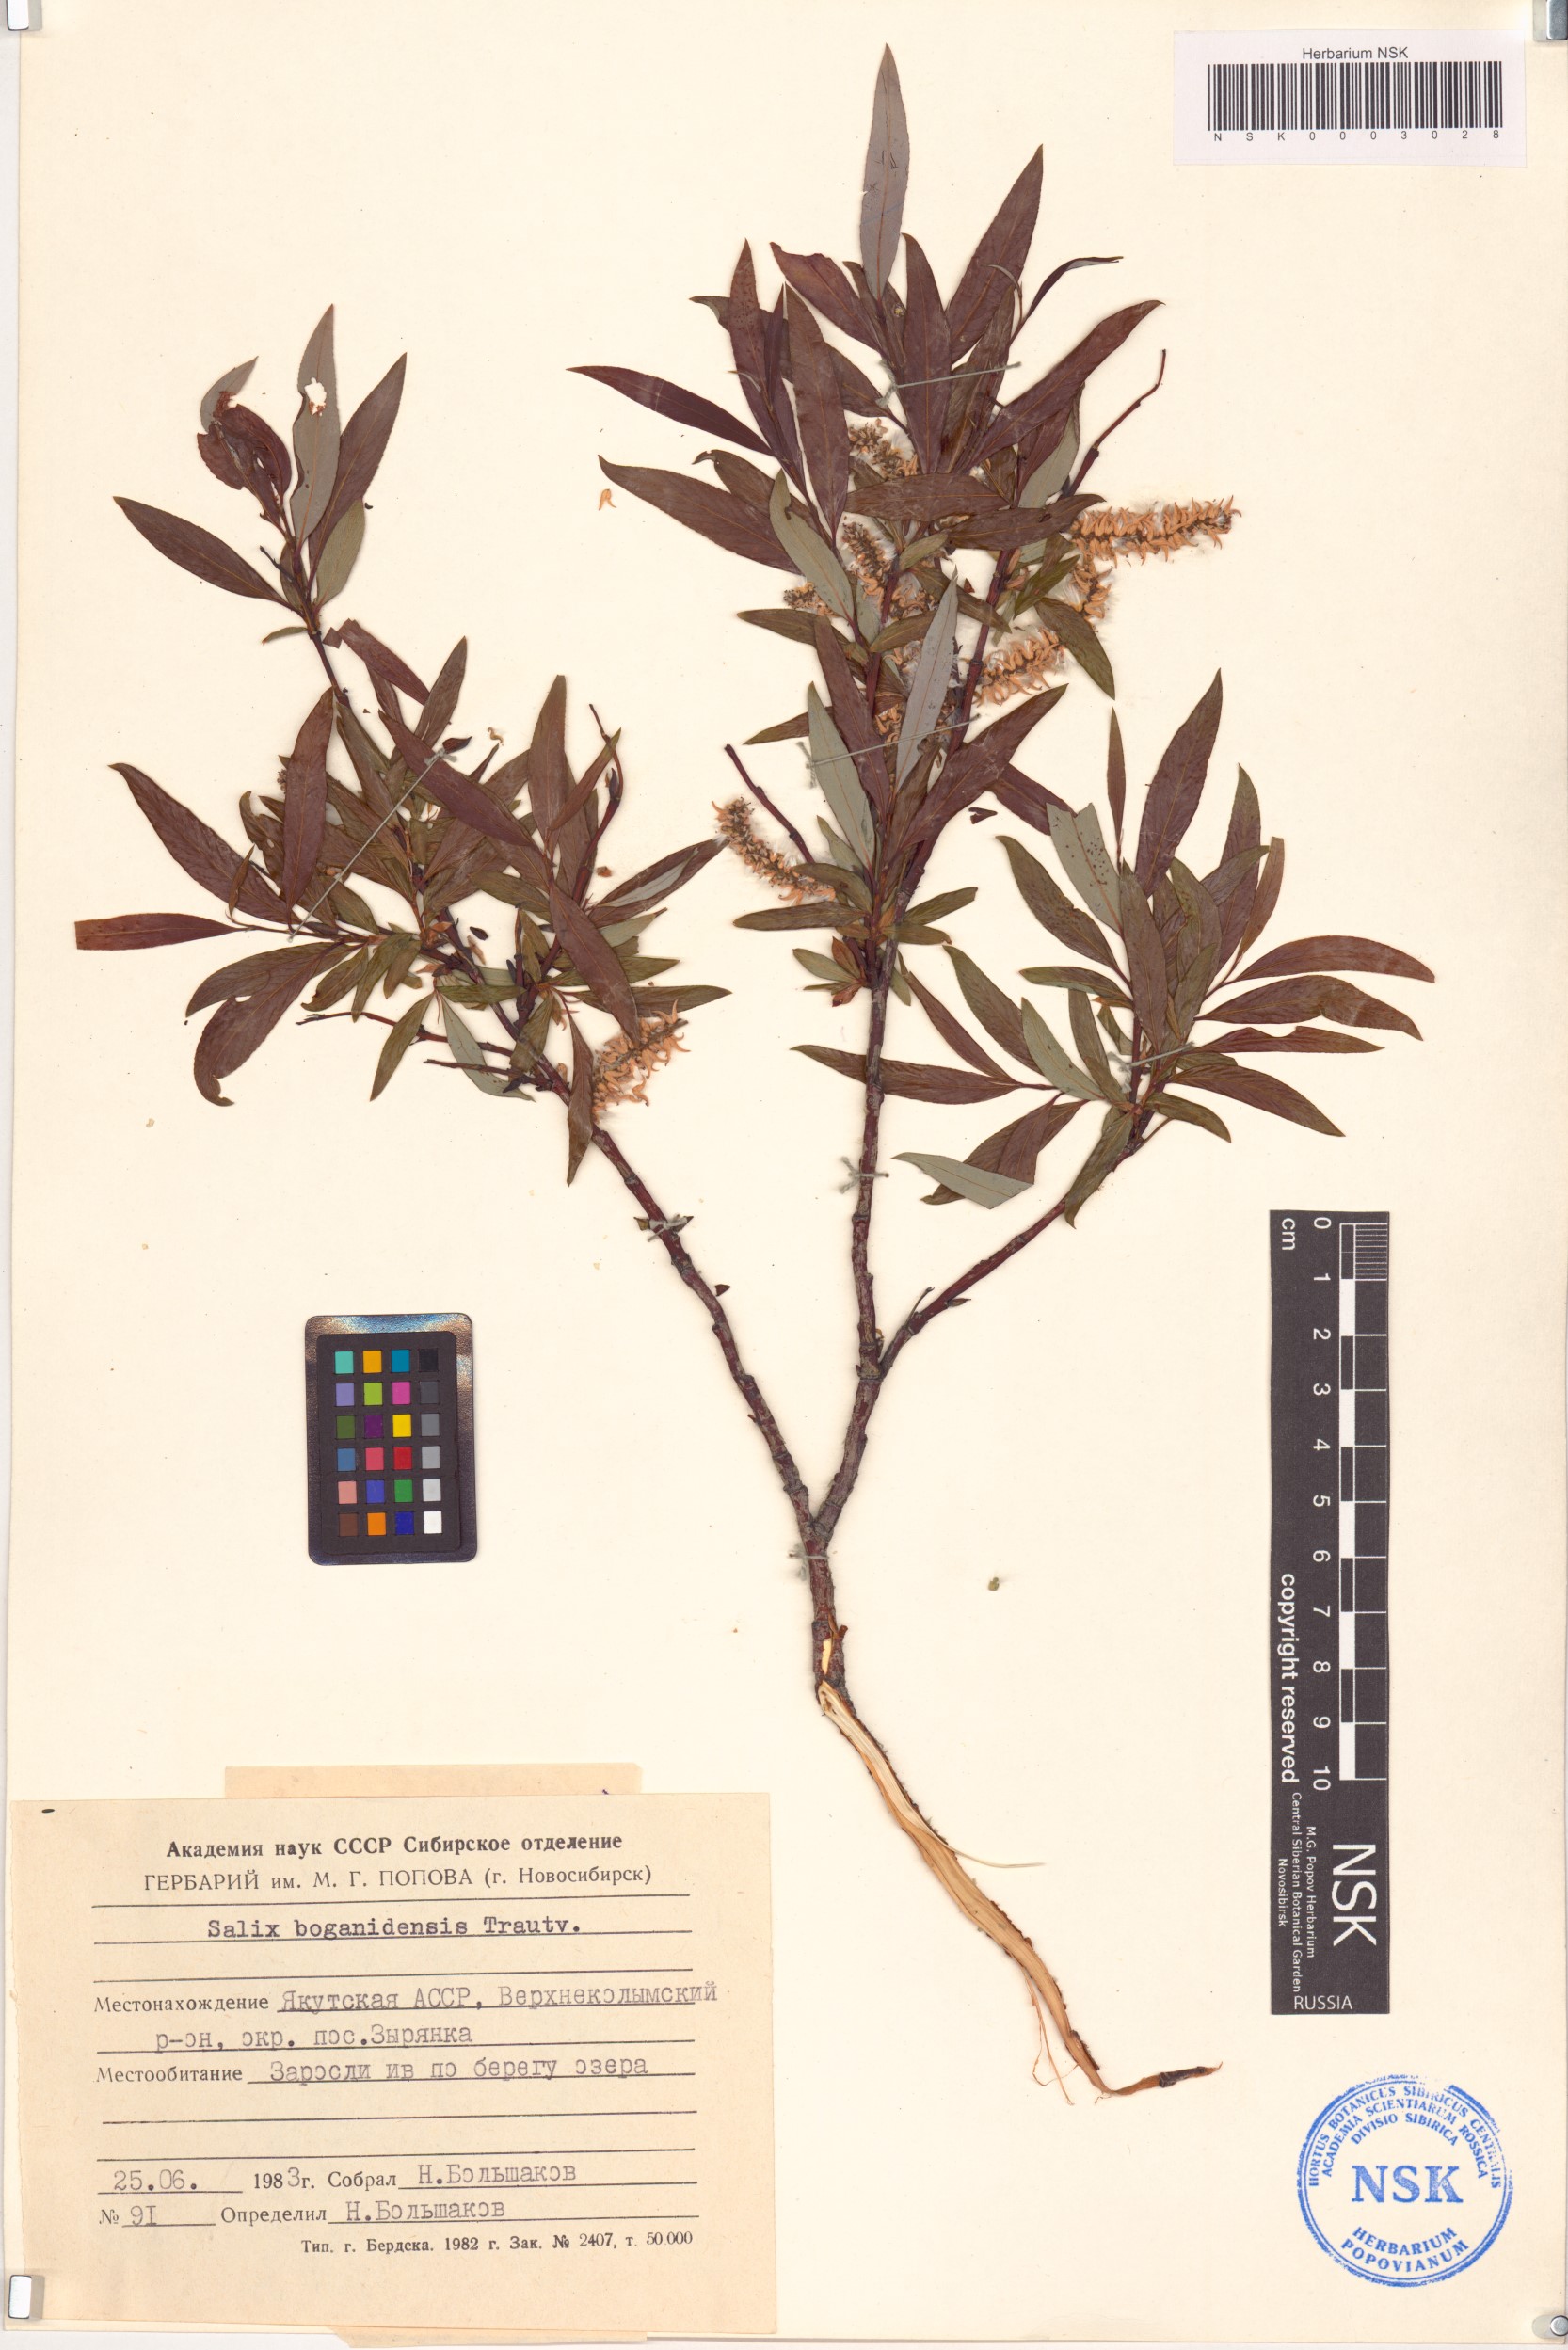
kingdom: Plantae
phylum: Tracheophyta
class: Magnoliopsida
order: Malpighiales
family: Salicaceae
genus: Salix
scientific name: Salix boganidensis
